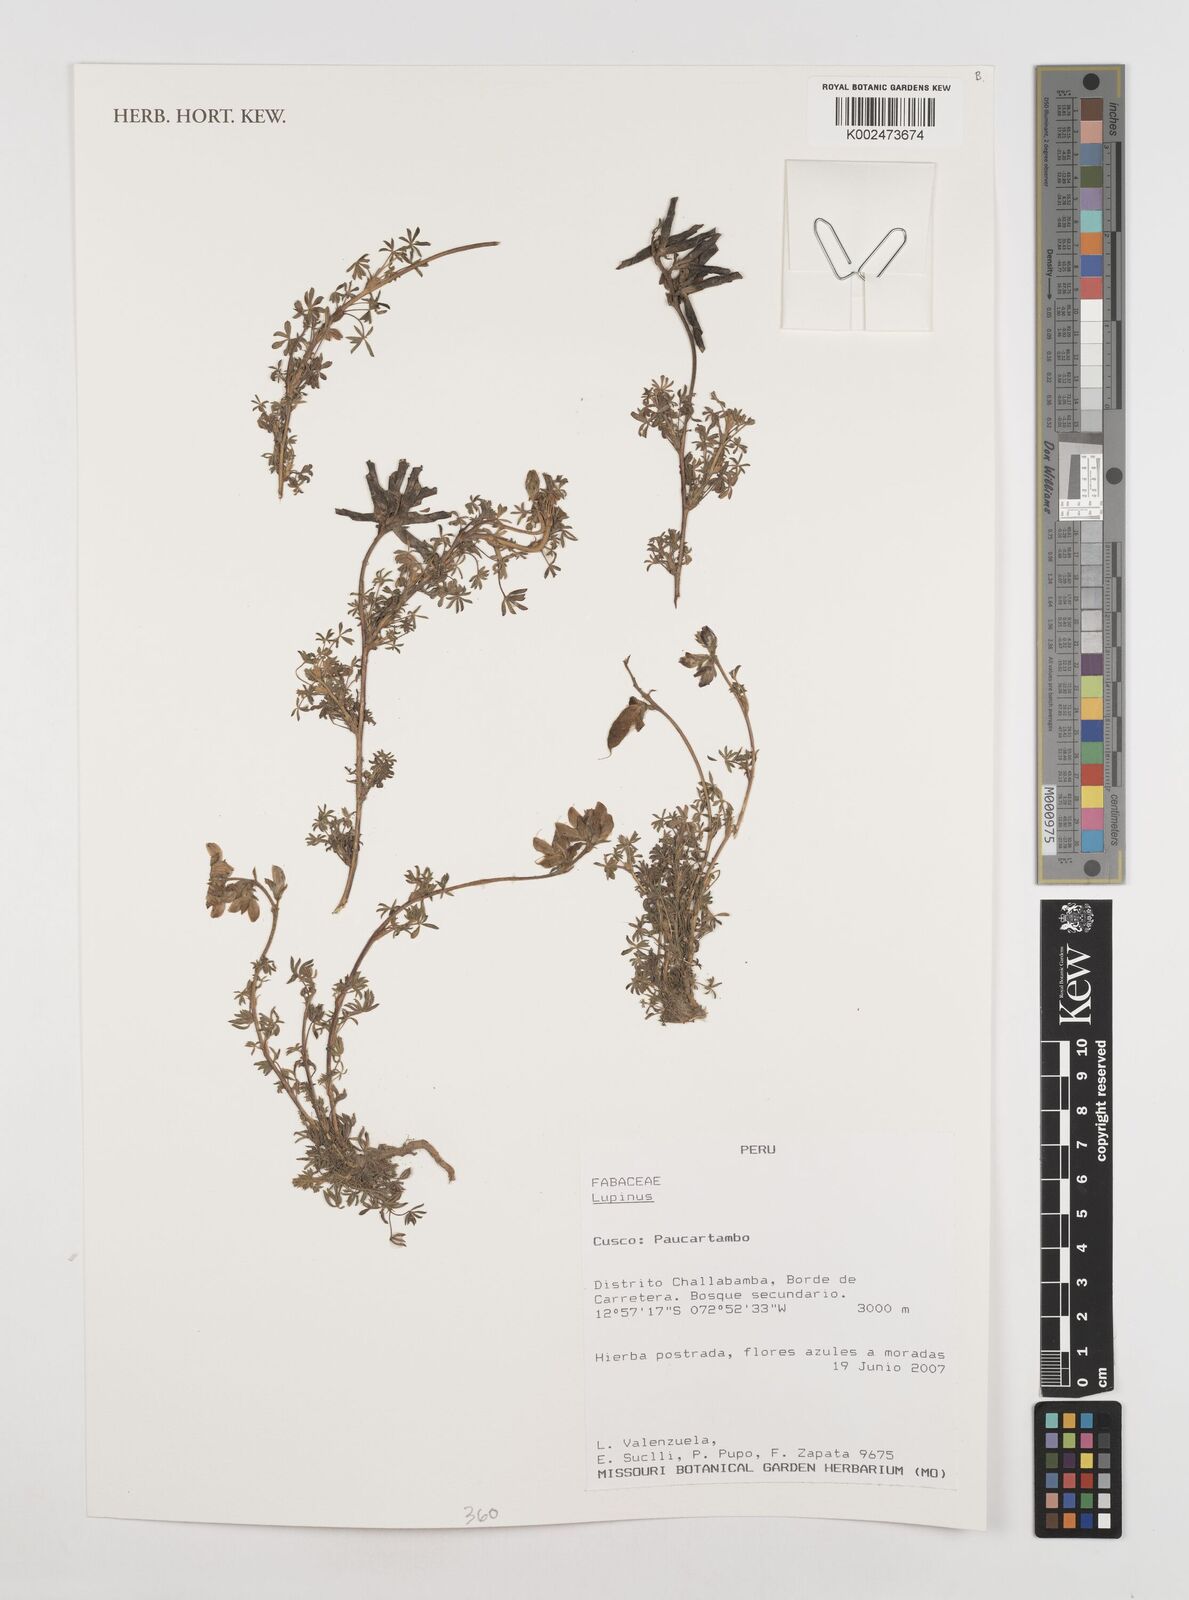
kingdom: Plantae
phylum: Tracheophyta
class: Magnoliopsida
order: Fabales
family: Fabaceae
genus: Lupinus
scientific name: Lupinus
